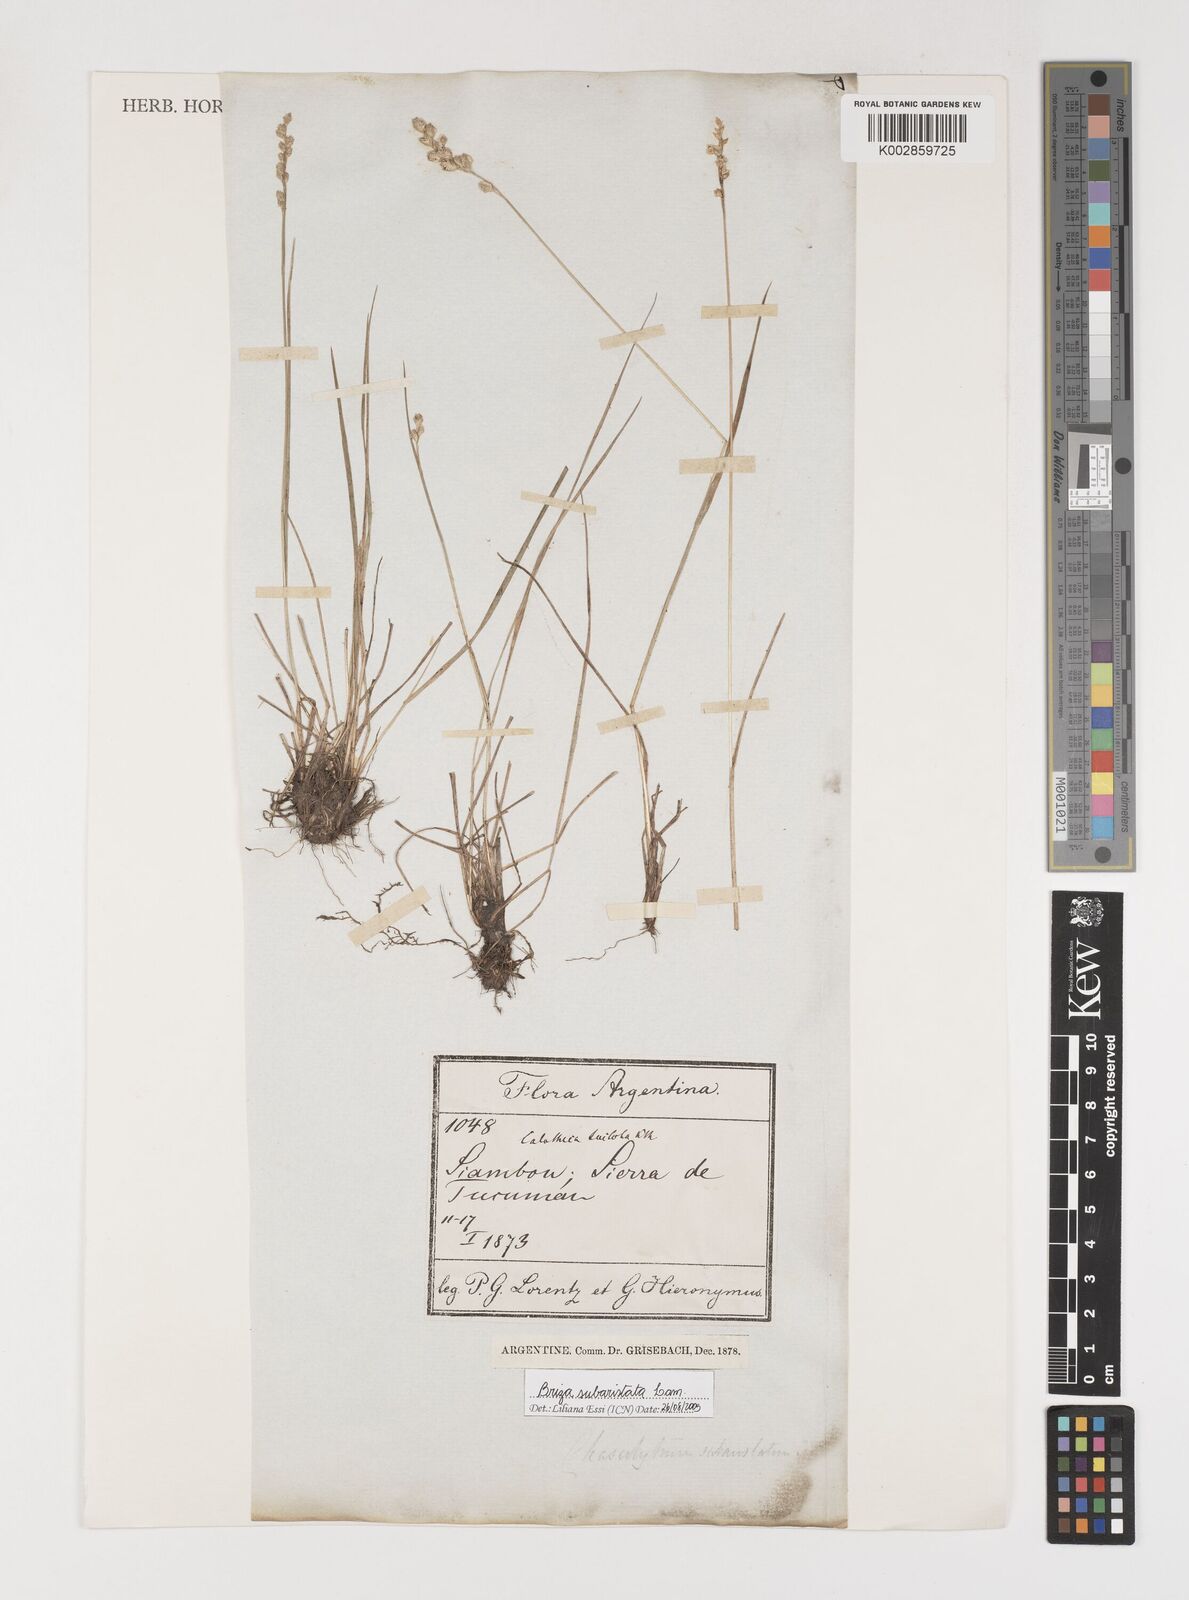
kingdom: Plantae
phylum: Tracheophyta
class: Liliopsida
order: Poales
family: Poaceae
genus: Chascolytrum
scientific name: Chascolytrum subaristatum
